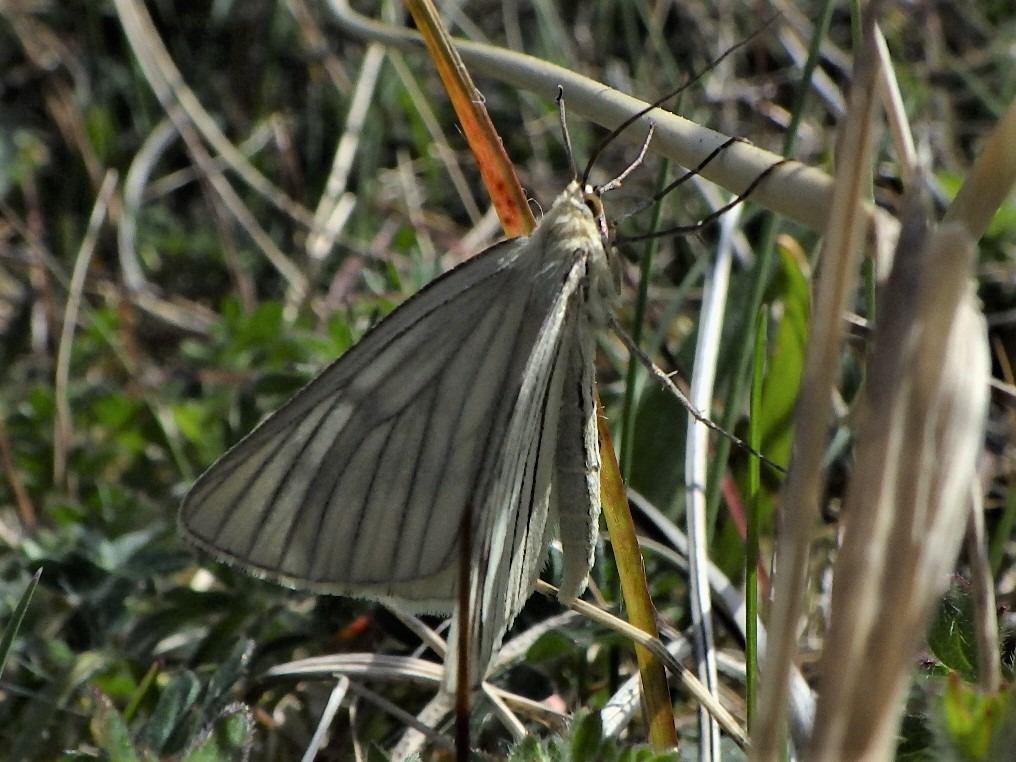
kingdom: Animalia
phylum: Arthropoda
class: Insecta
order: Lepidoptera
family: Geometridae
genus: Siona
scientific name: Siona lineata
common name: Hvidvingemåler
